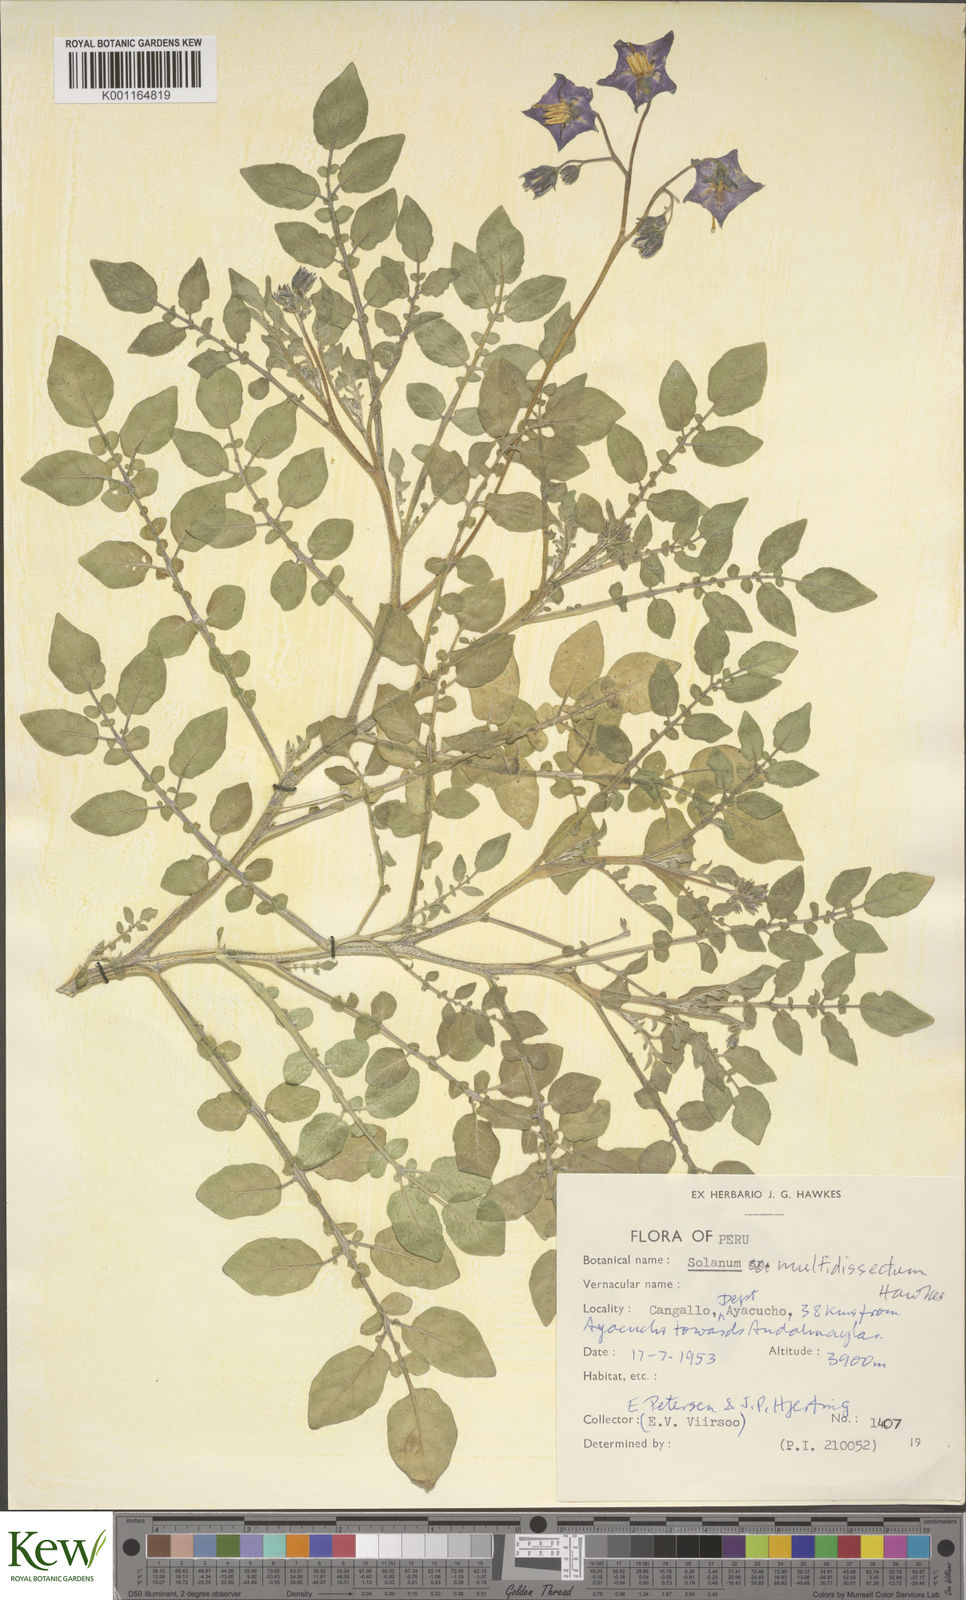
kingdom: Plantae
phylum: Tracheophyta
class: Magnoliopsida
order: Solanales
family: Solanaceae
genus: Solanum
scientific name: Solanum candolleanum
